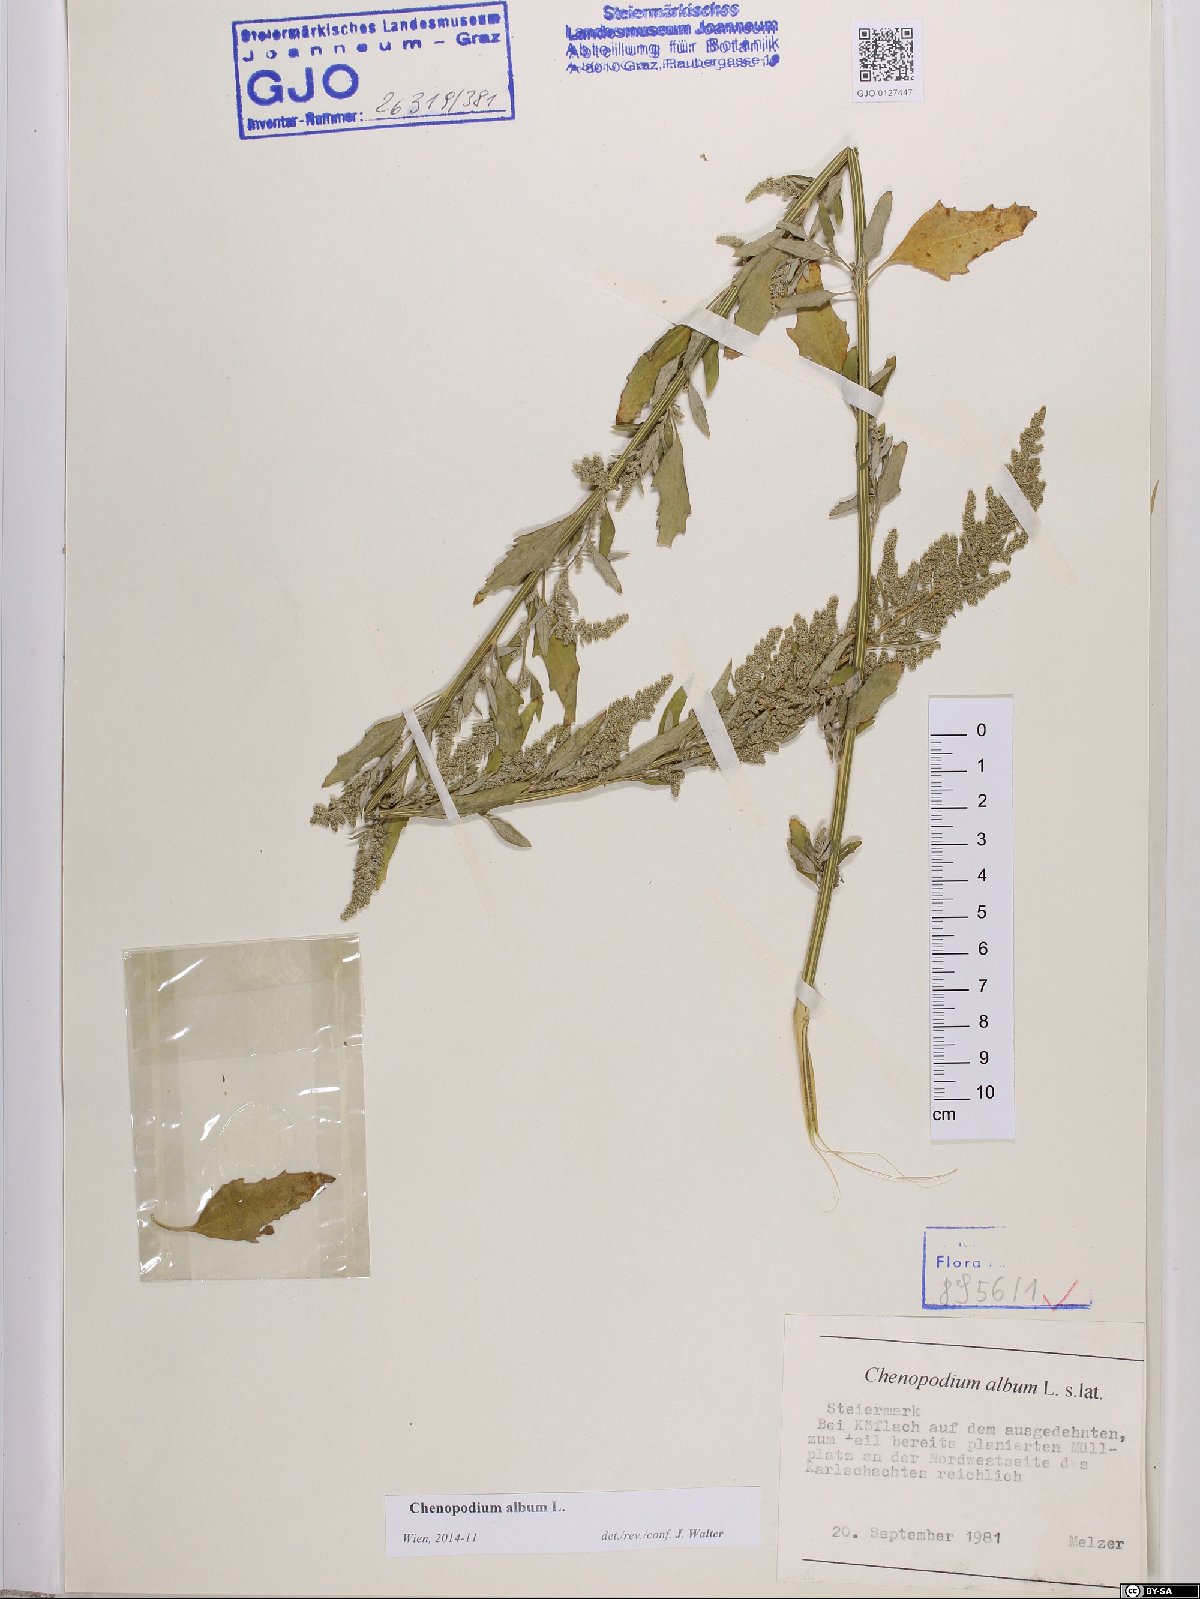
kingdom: Plantae
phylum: Tracheophyta
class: Magnoliopsida
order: Caryophyllales
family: Amaranthaceae
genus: Chenopodium
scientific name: Chenopodium album
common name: Fat-hen
